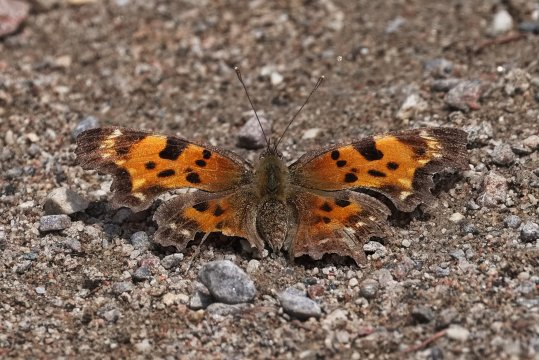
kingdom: Animalia
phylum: Arthropoda
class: Insecta
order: Lepidoptera
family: Nymphalidae
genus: Polygonia
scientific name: Polygonia faunus
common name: Green Comma
